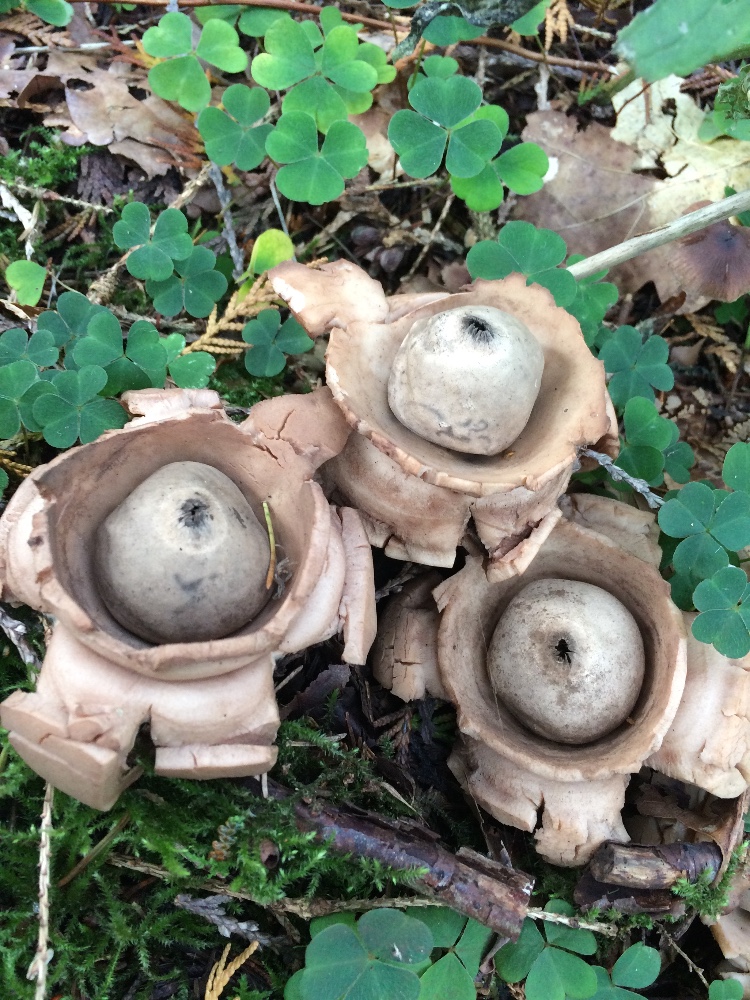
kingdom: Fungi
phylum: Basidiomycota
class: Agaricomycetes
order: Geastrales
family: Geastraceae
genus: Geastrum
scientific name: Geastrum michelianum
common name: kødet stjernebold
